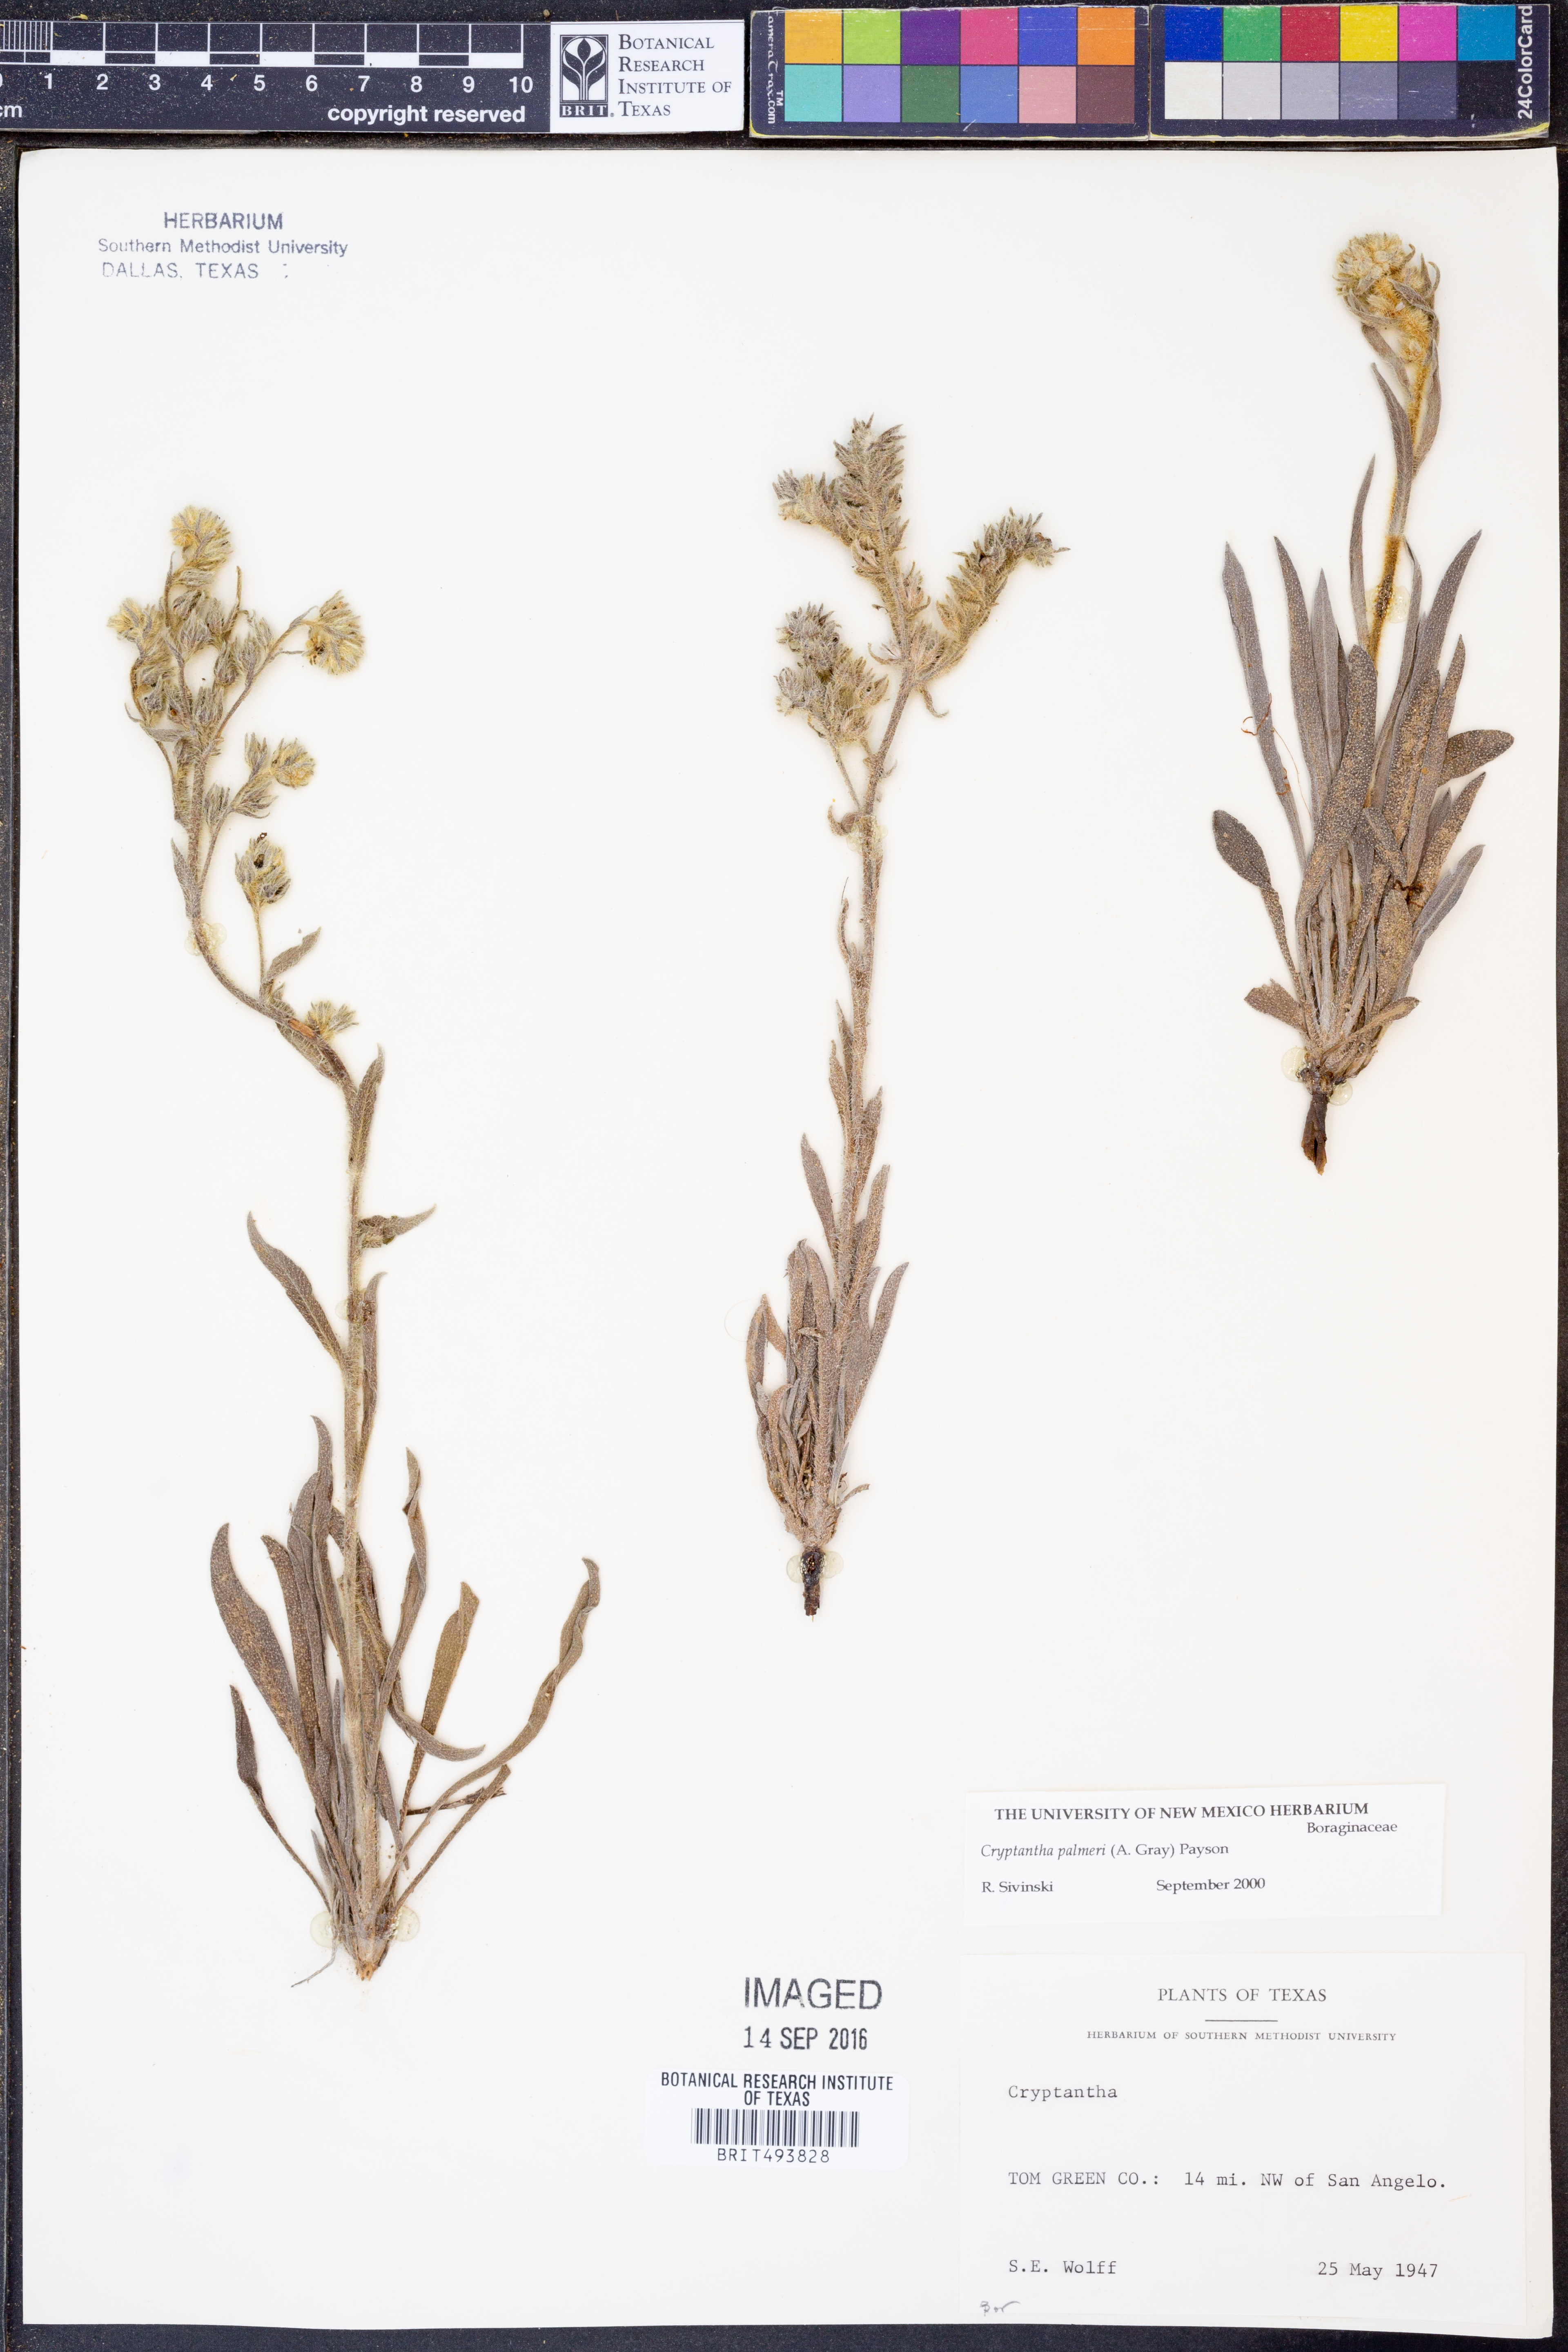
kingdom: Plantae
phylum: Tracheophyta
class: Magnoliopsida
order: Boraginales
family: Boraginaceae
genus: Oreocarya
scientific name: Oreocarya palmeri
